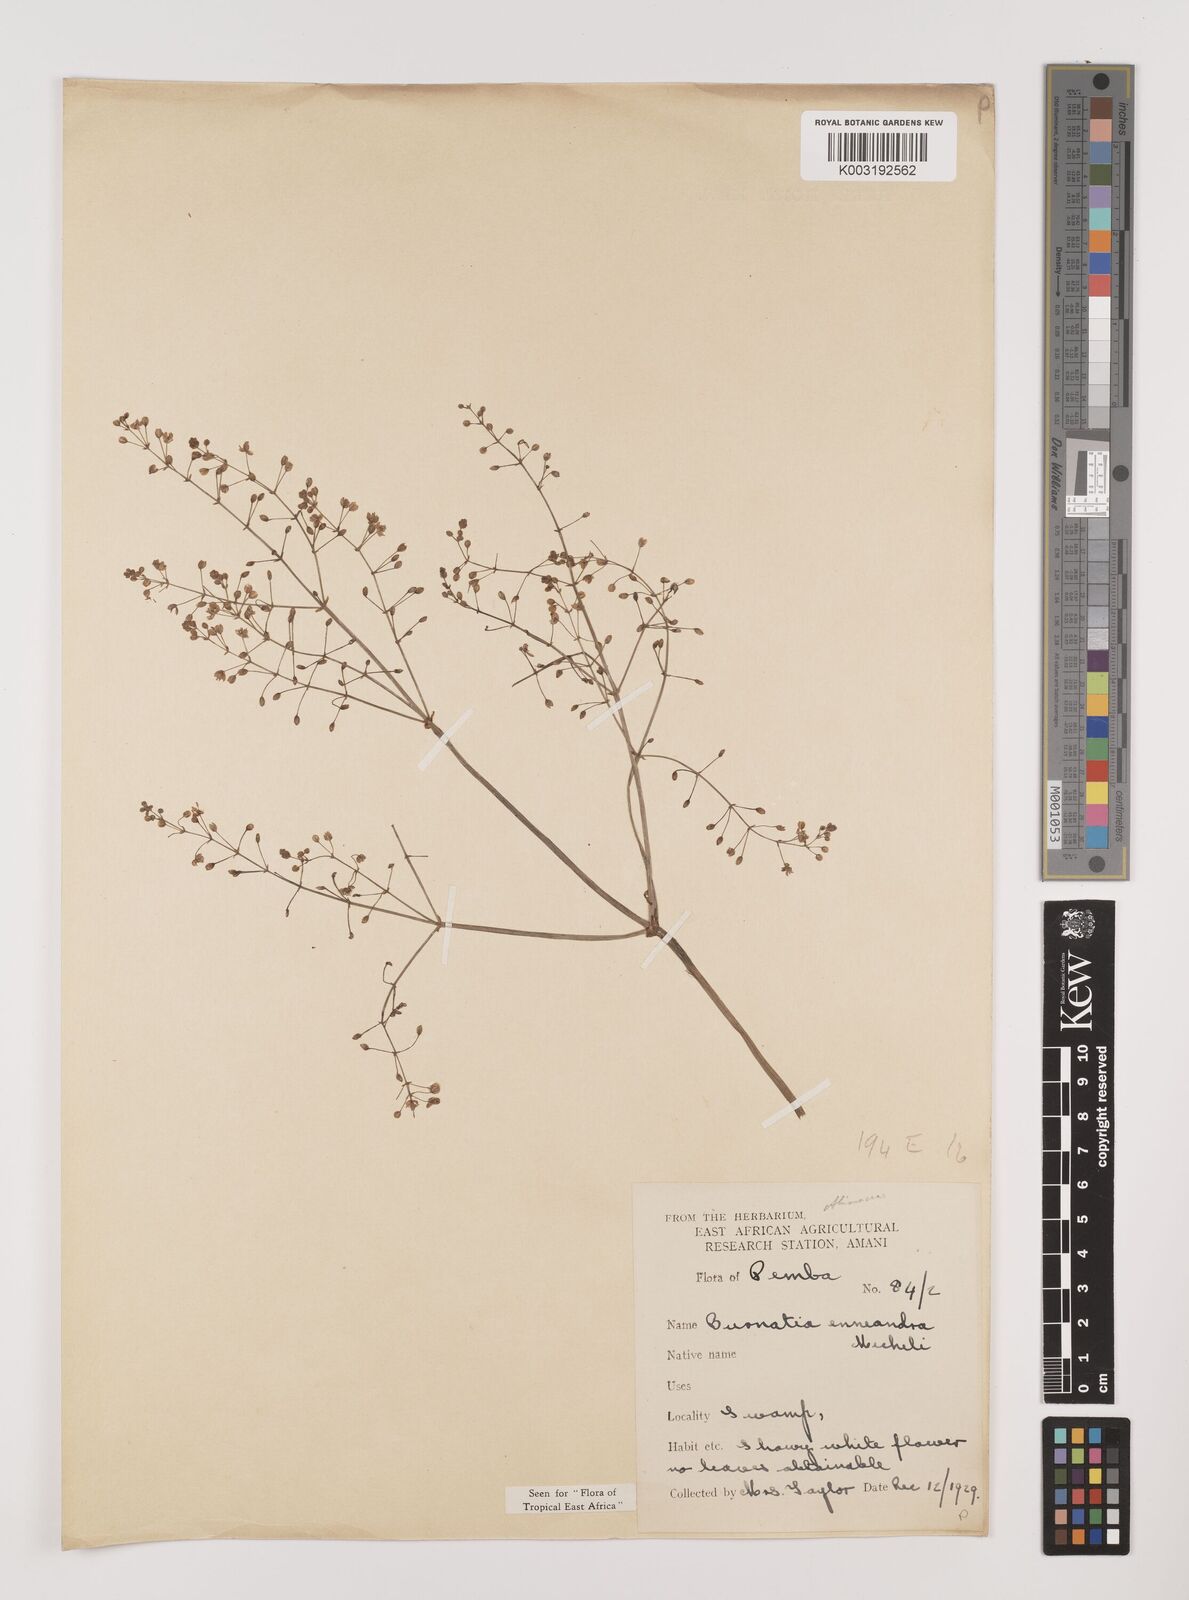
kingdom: Plantae
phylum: Tracheophyta
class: Liliopsida
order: Alismatales
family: Alismataceae
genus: Burnatia
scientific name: Burnatia enneandra
